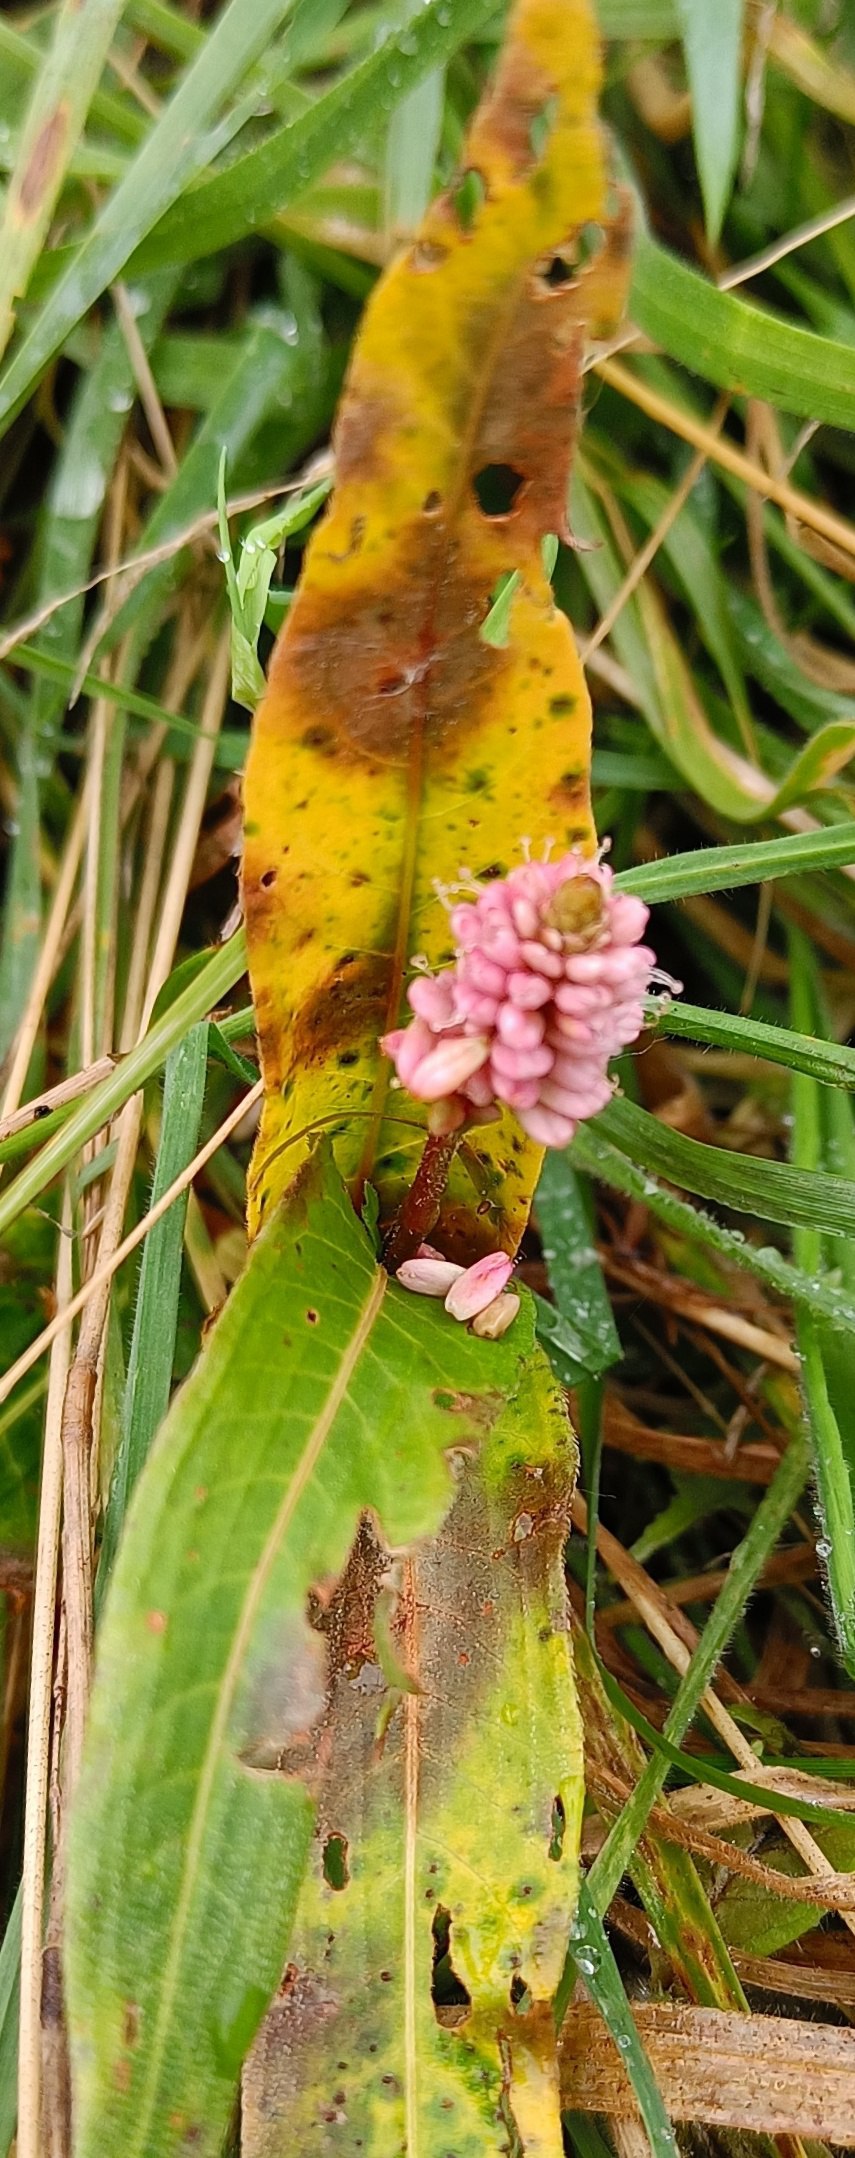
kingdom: Plantae
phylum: Tracheophyta
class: Magnoliopsida
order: Caryophyllales
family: Polygonaceae
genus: Persicaria
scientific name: Persicaria maculosa
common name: Fersken-pileurt
